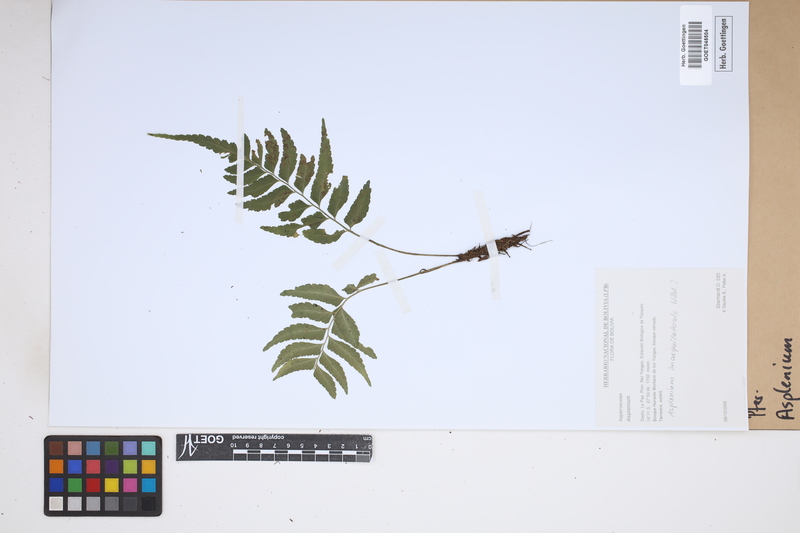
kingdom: Plantae
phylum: Tracheophyta
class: Polypodiopsida
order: Polypodiales
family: Aspleniaceae
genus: Asplenium
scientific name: Asplenium
